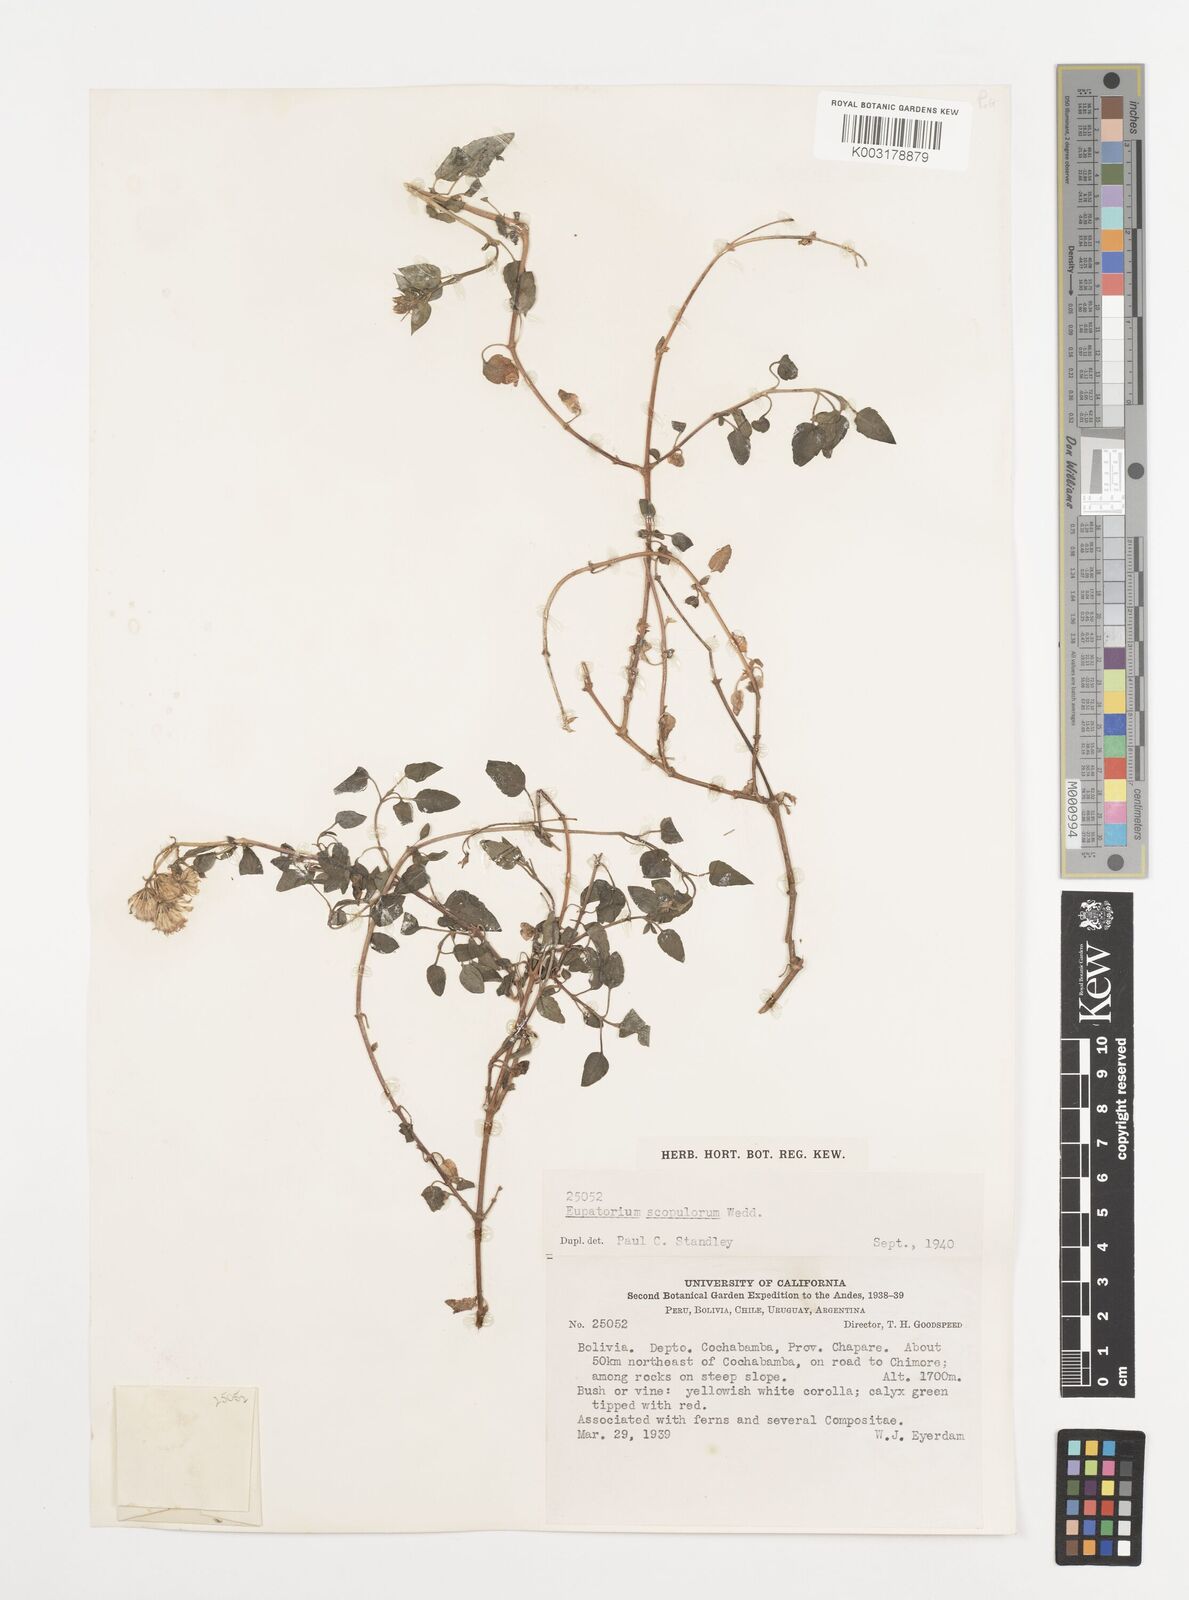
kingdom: Plantae
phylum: Tracheophyta
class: Magnoliopsida
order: Asterales
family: Asteraceae
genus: Ageratina
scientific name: Ageratina scopulorum
